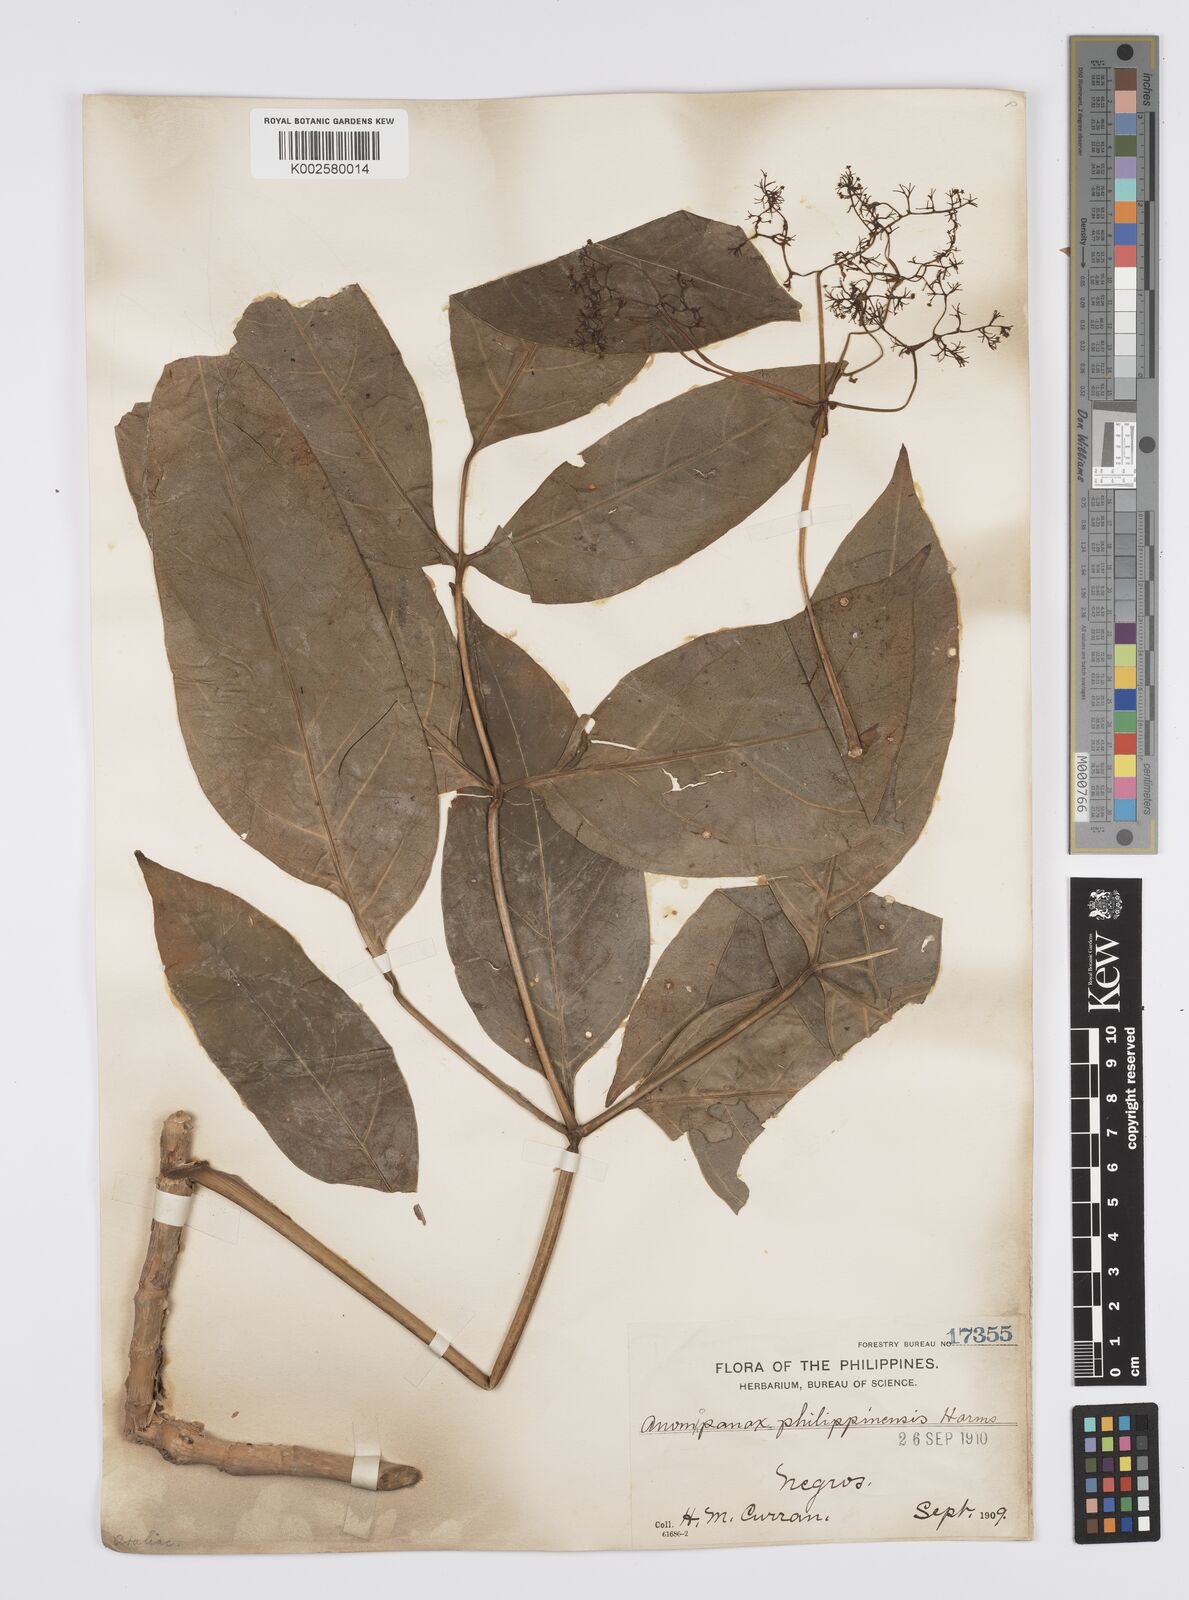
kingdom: Plantae
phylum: Tracheophyta
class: Magnoliopsida
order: Apiales
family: Apiaceae
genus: Mackinlaya
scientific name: Mackinlaya celebica
